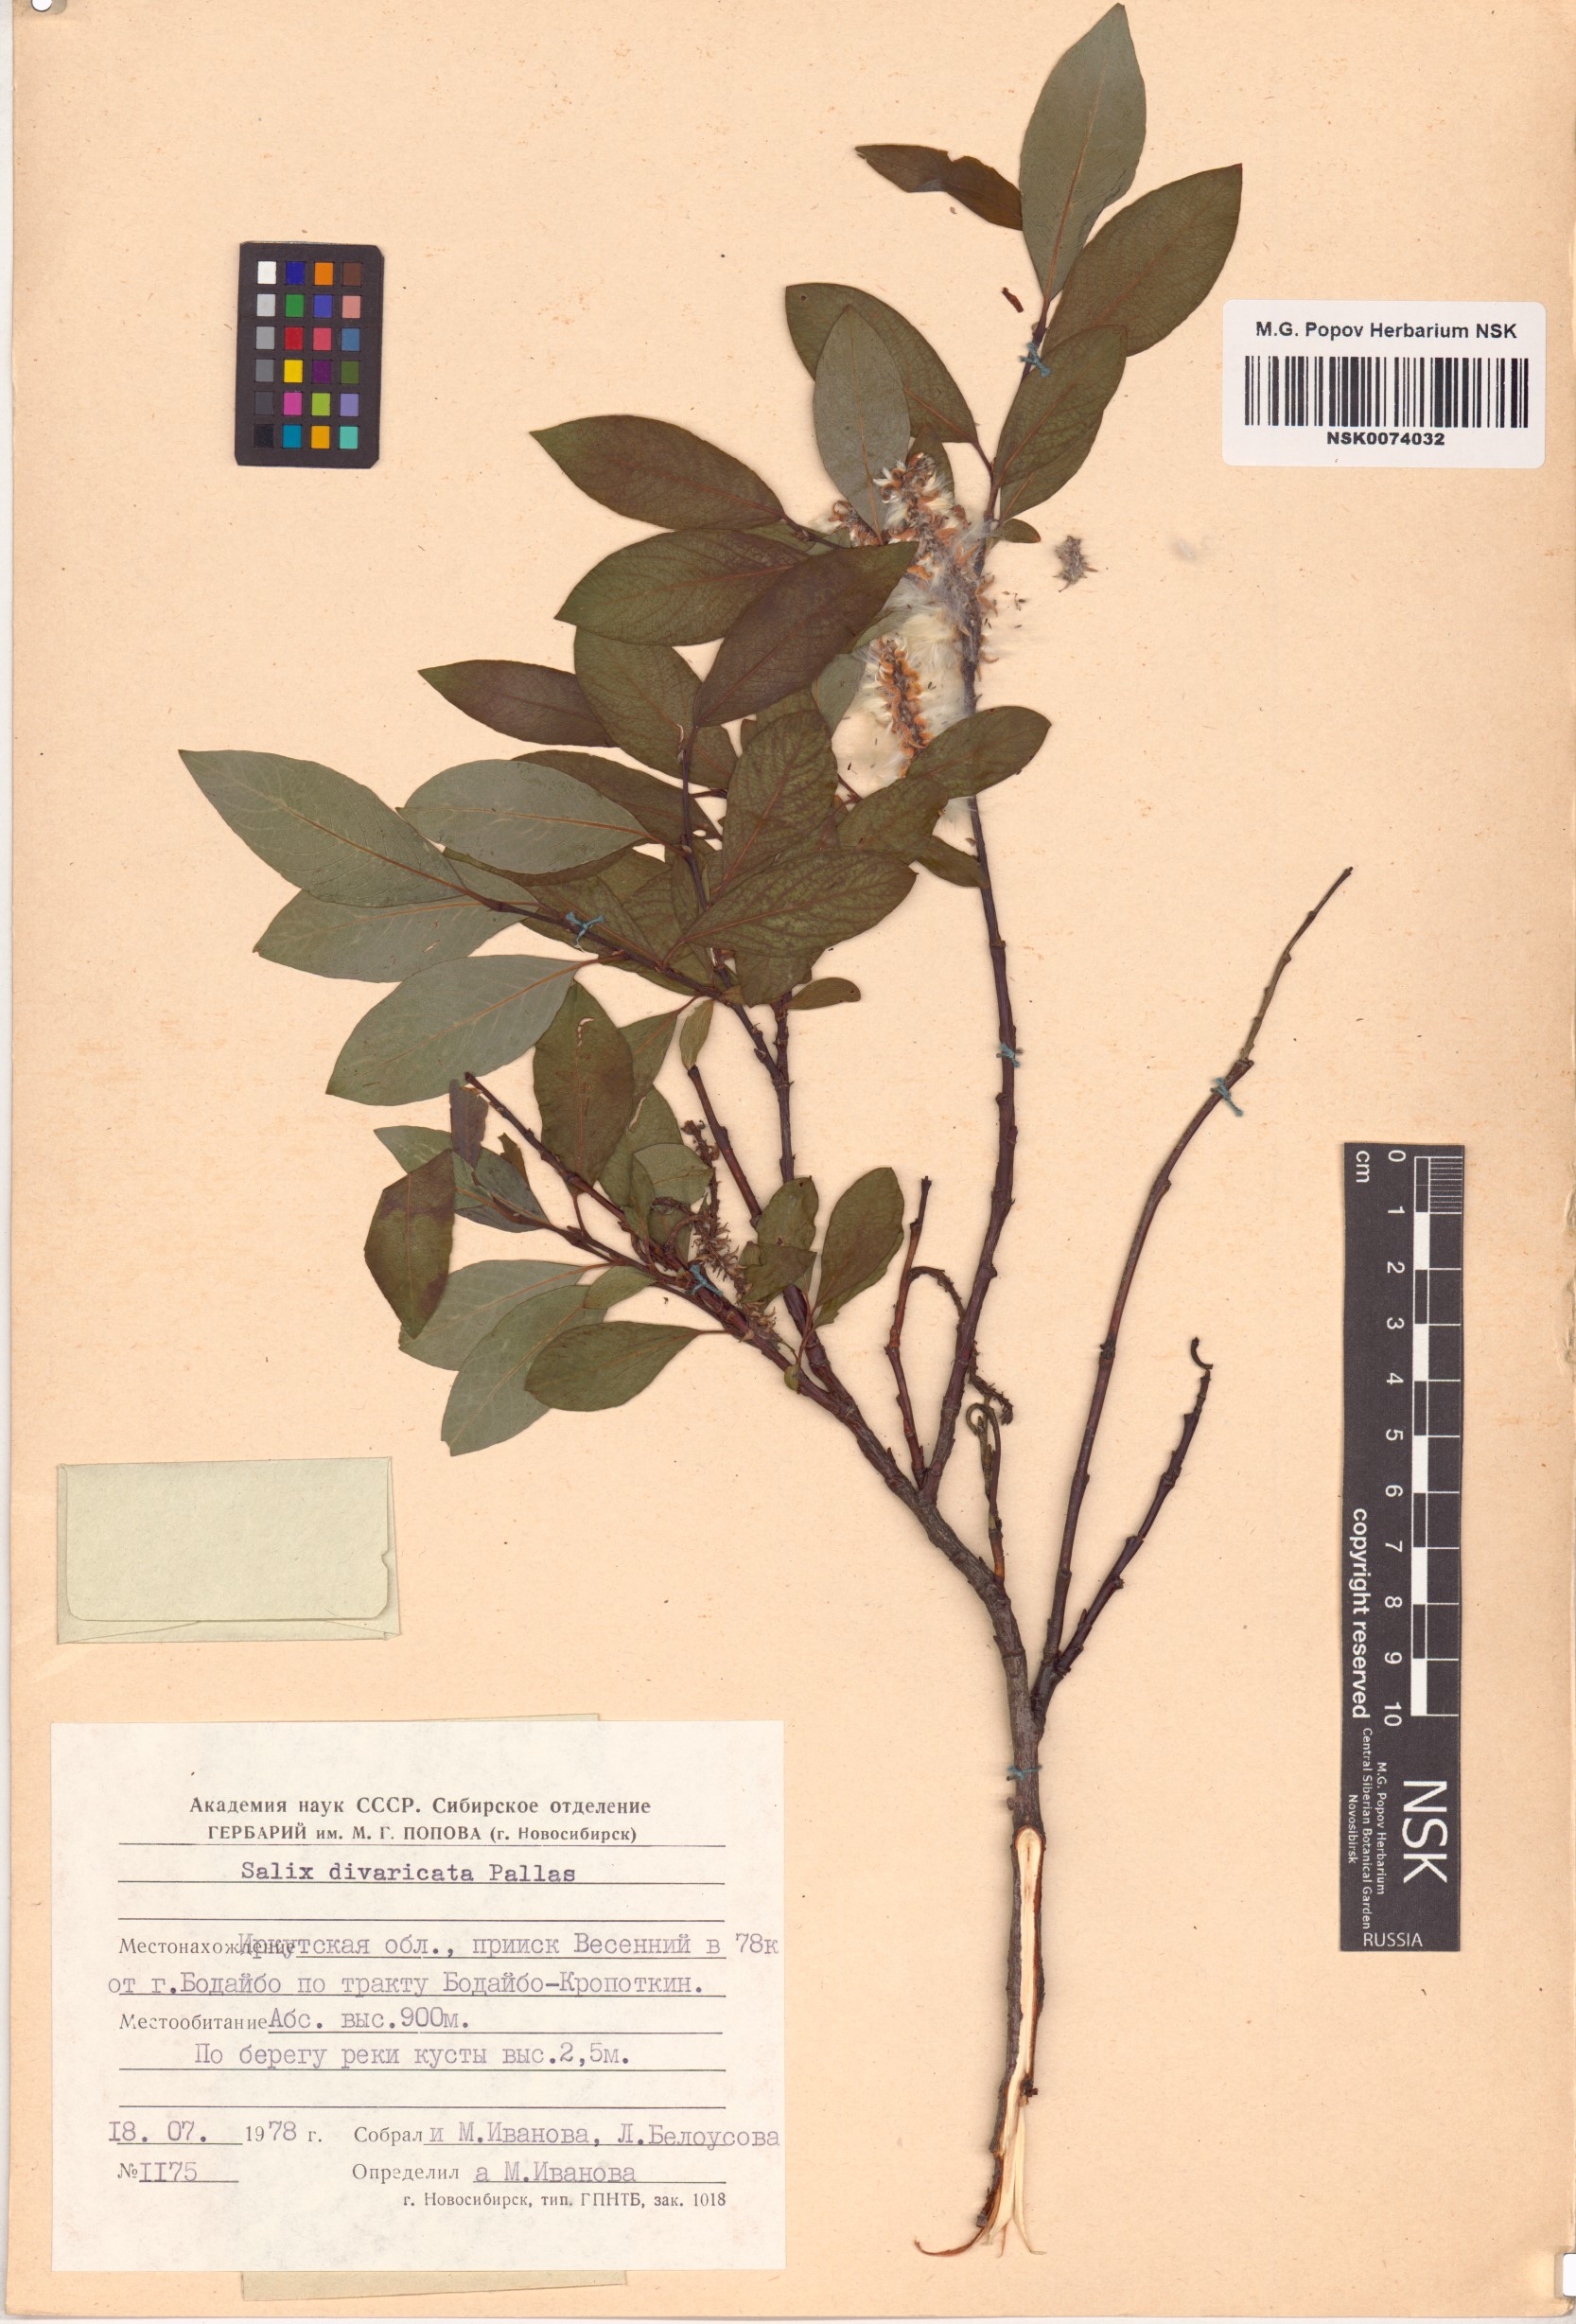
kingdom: Plantae
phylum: Tracheophyta
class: Magnoliopsida
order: Malpighiales
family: Salicaceae
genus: Salix
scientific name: Salix divaricata
